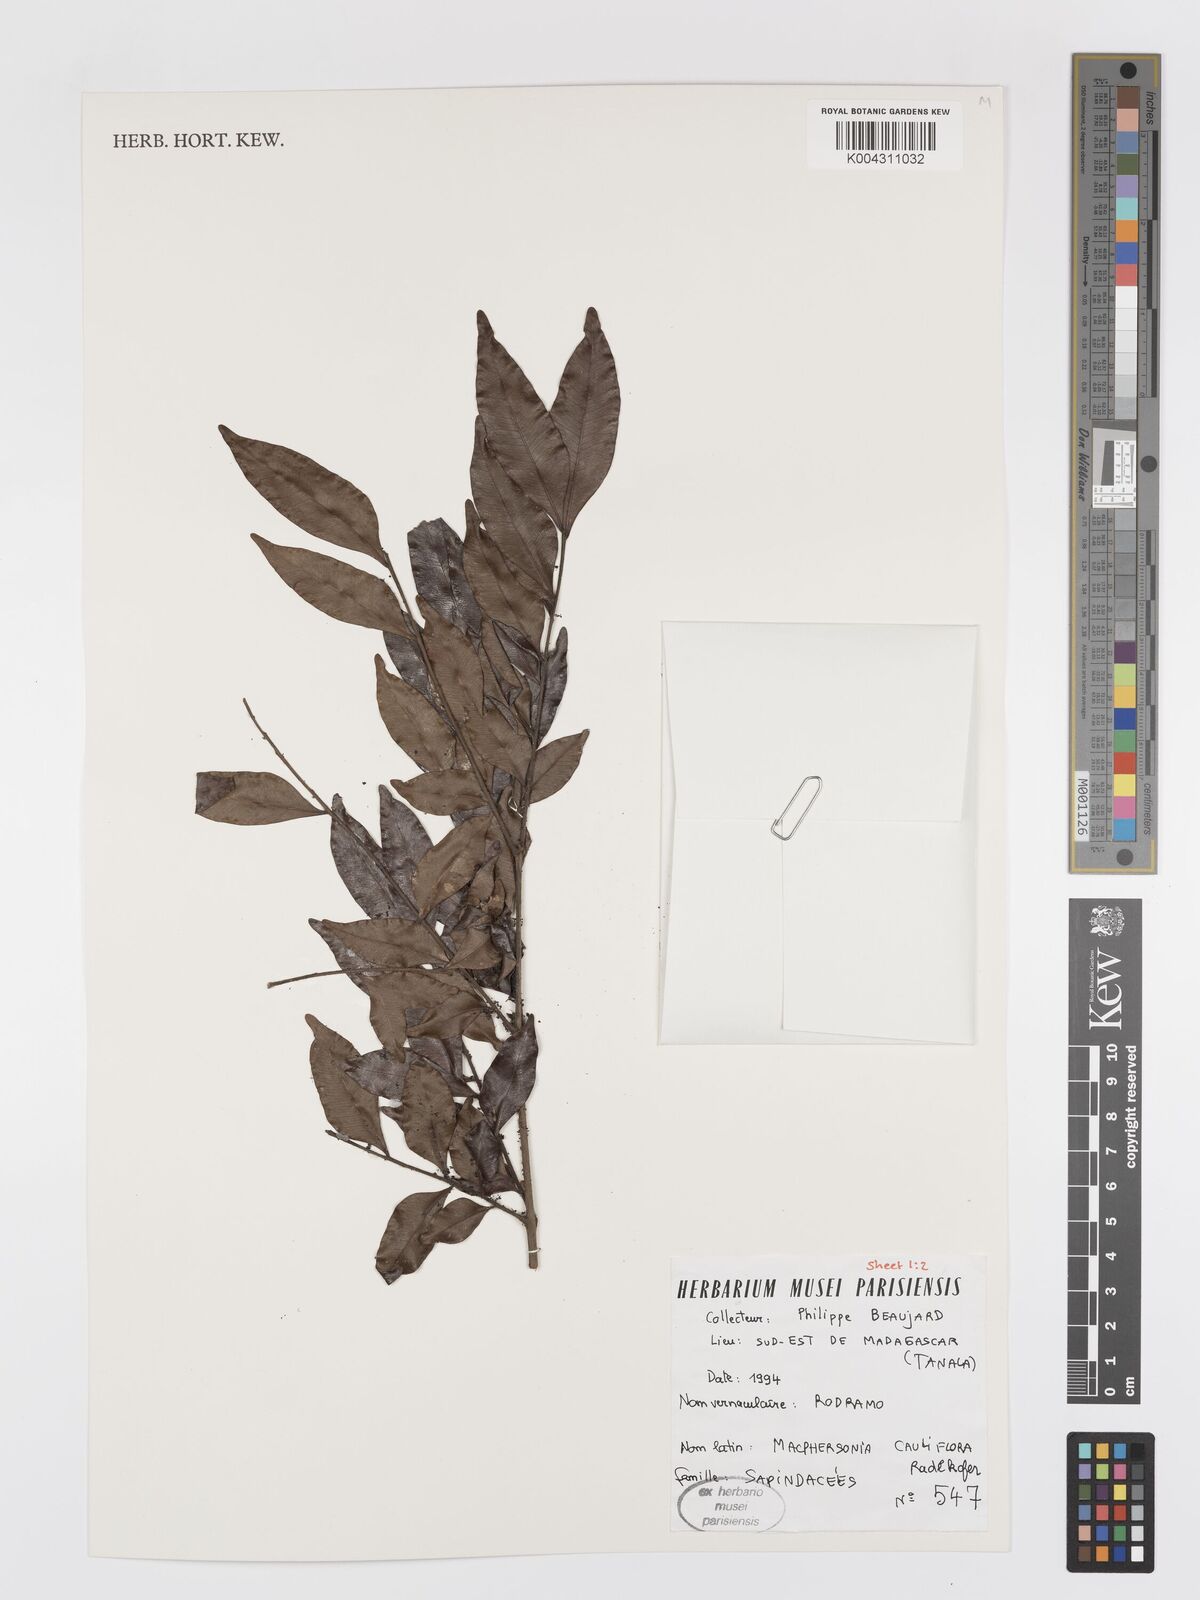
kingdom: Plantae
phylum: Tracheophyta
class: Magnoliopsida
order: Sapindales
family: Sapindaceae
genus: Macphersonia
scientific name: Macphersonia cauliflora
